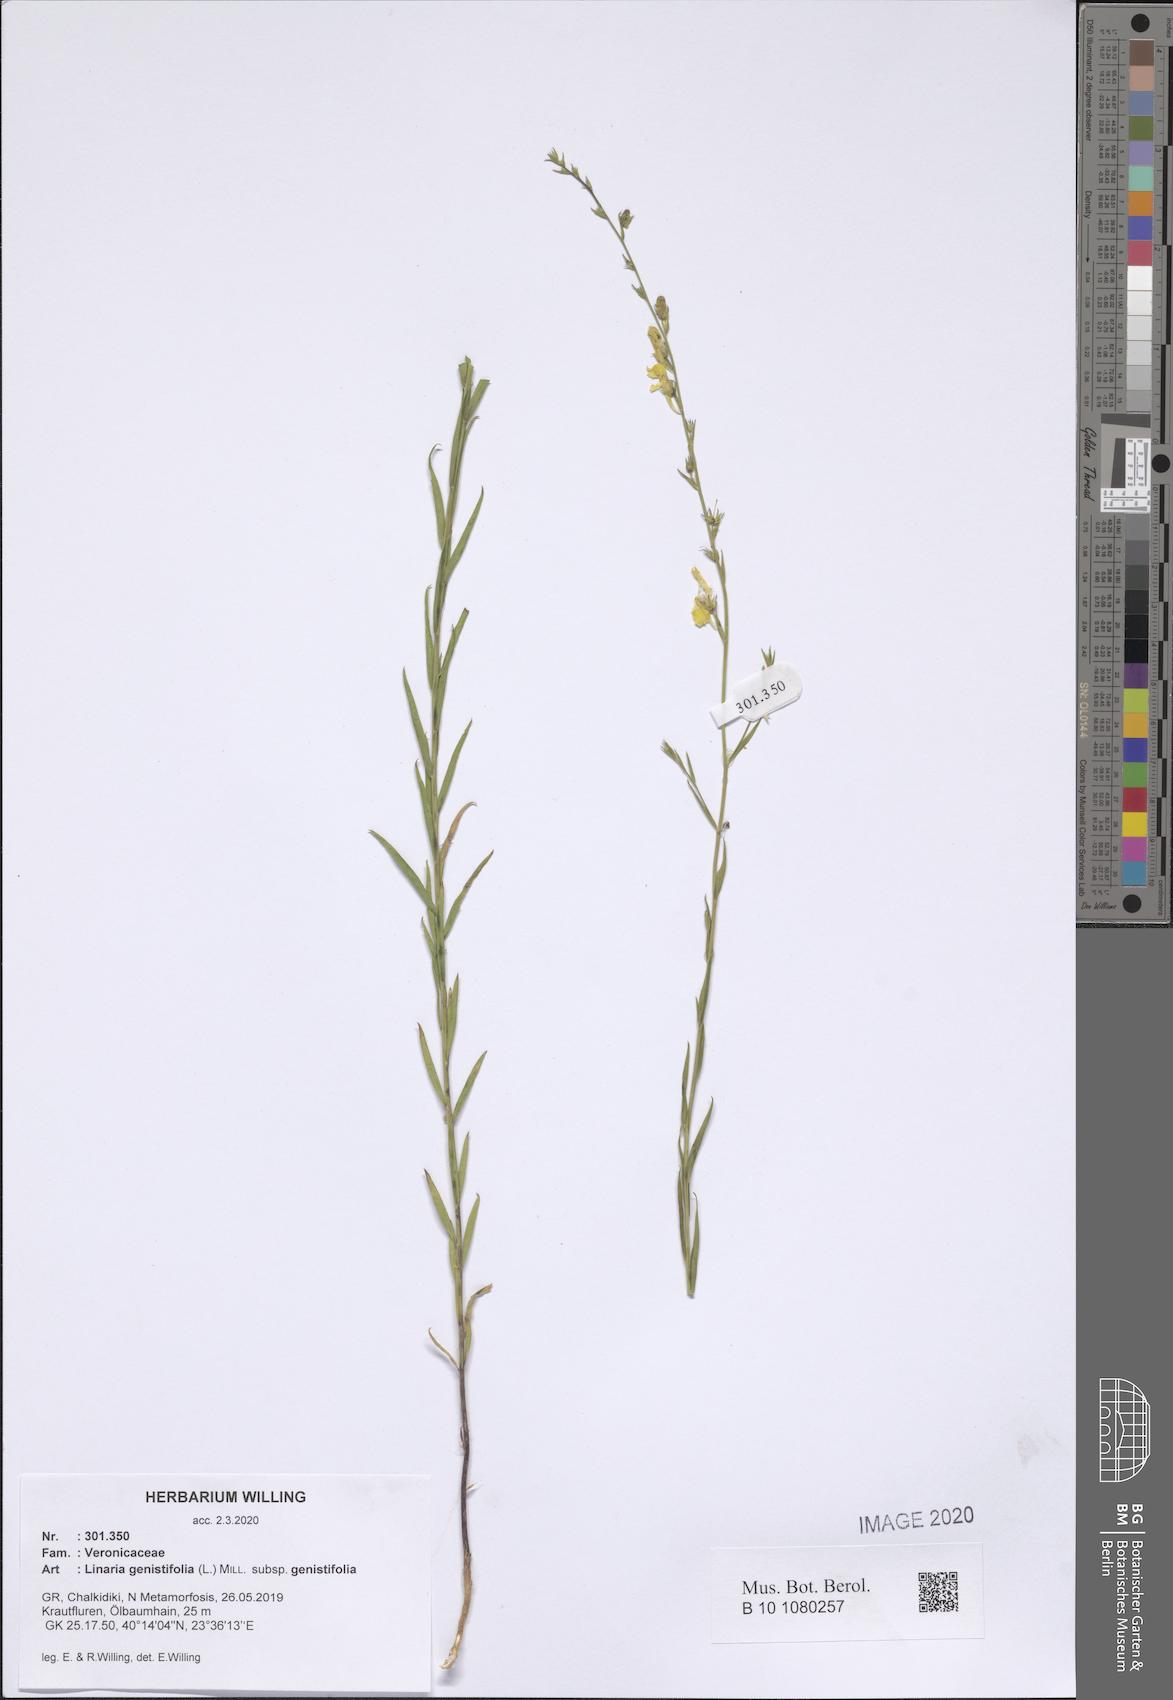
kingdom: Plantae
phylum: Tracheophyta
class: Magnoliopsida
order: Lamiales
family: Plantaginaceae
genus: Linaria
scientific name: Linaria genistifolia
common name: Broomleaf toadflax
